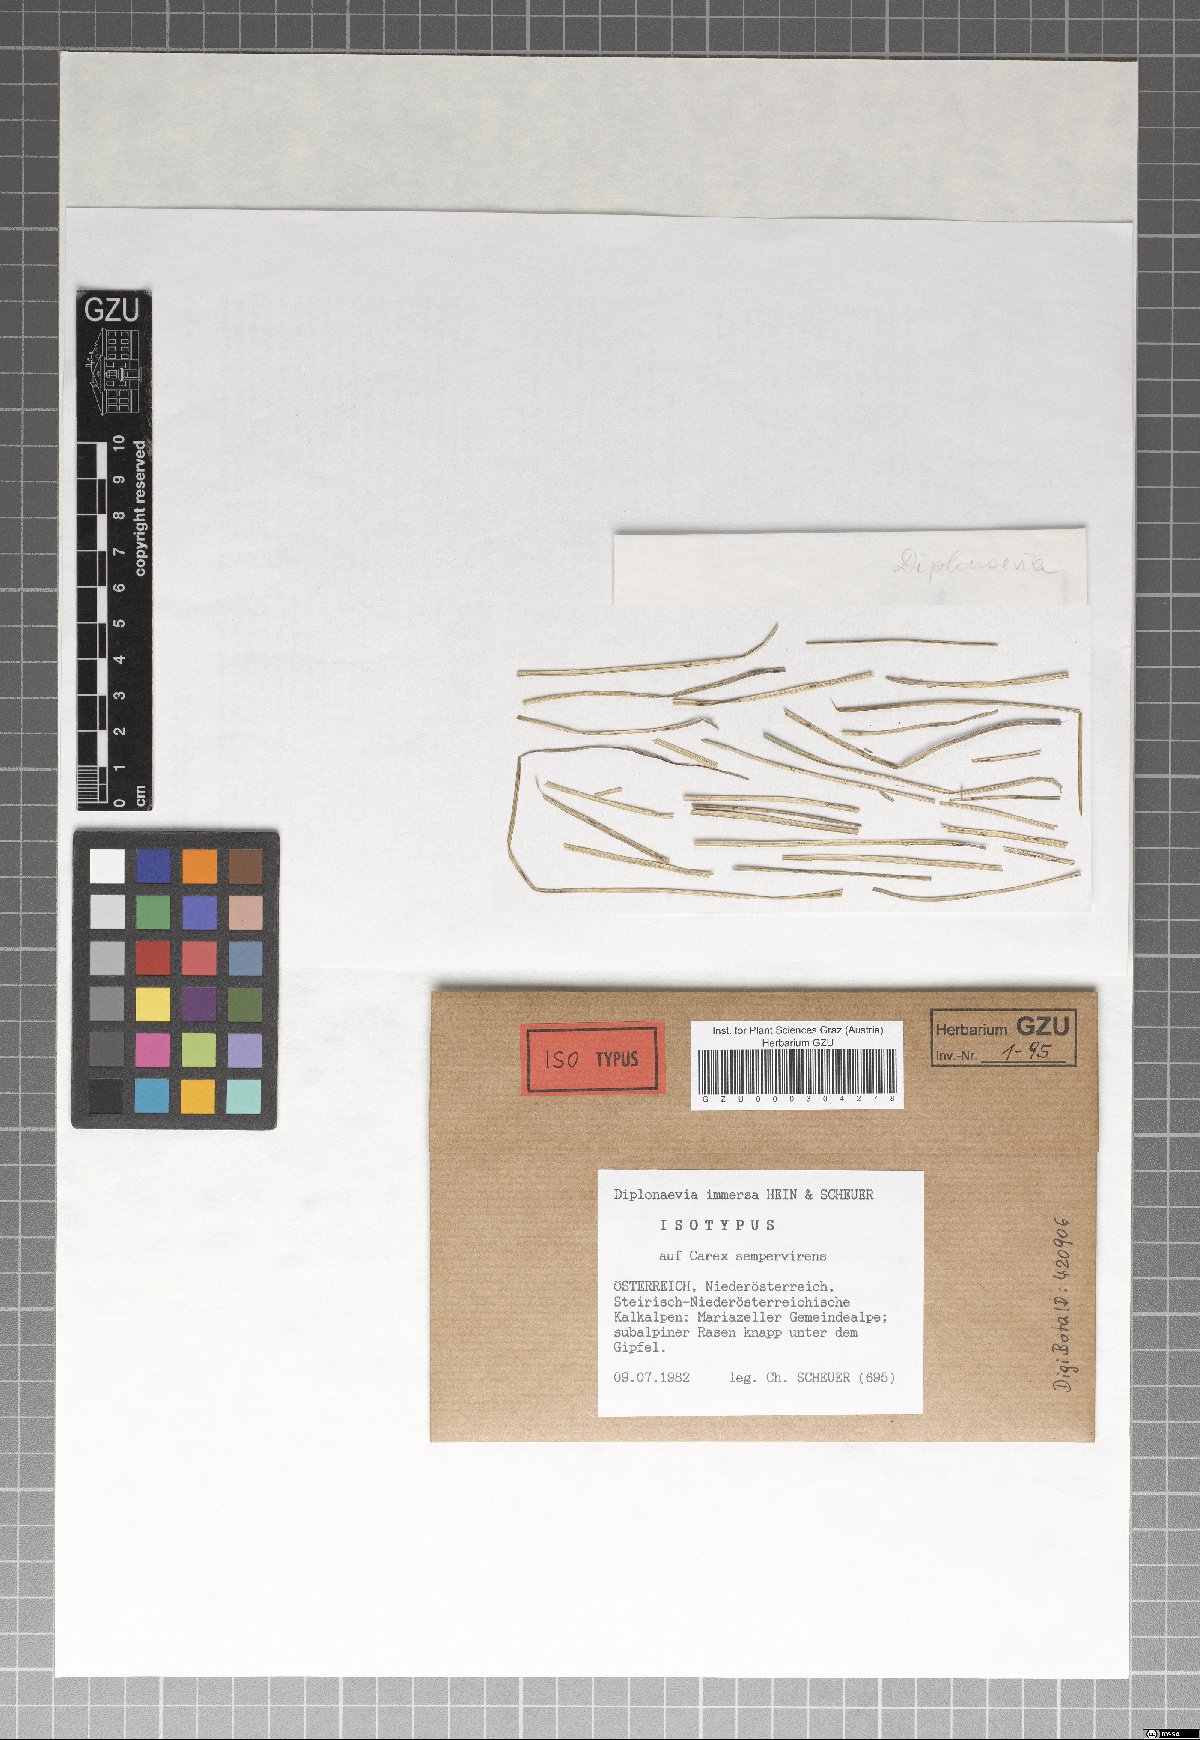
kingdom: Fungi
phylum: Ascomycota
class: Leotiomycetes
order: Helotiales
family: Calloriaceae
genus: Diplonaevia
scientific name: Diplonaevia immersa
